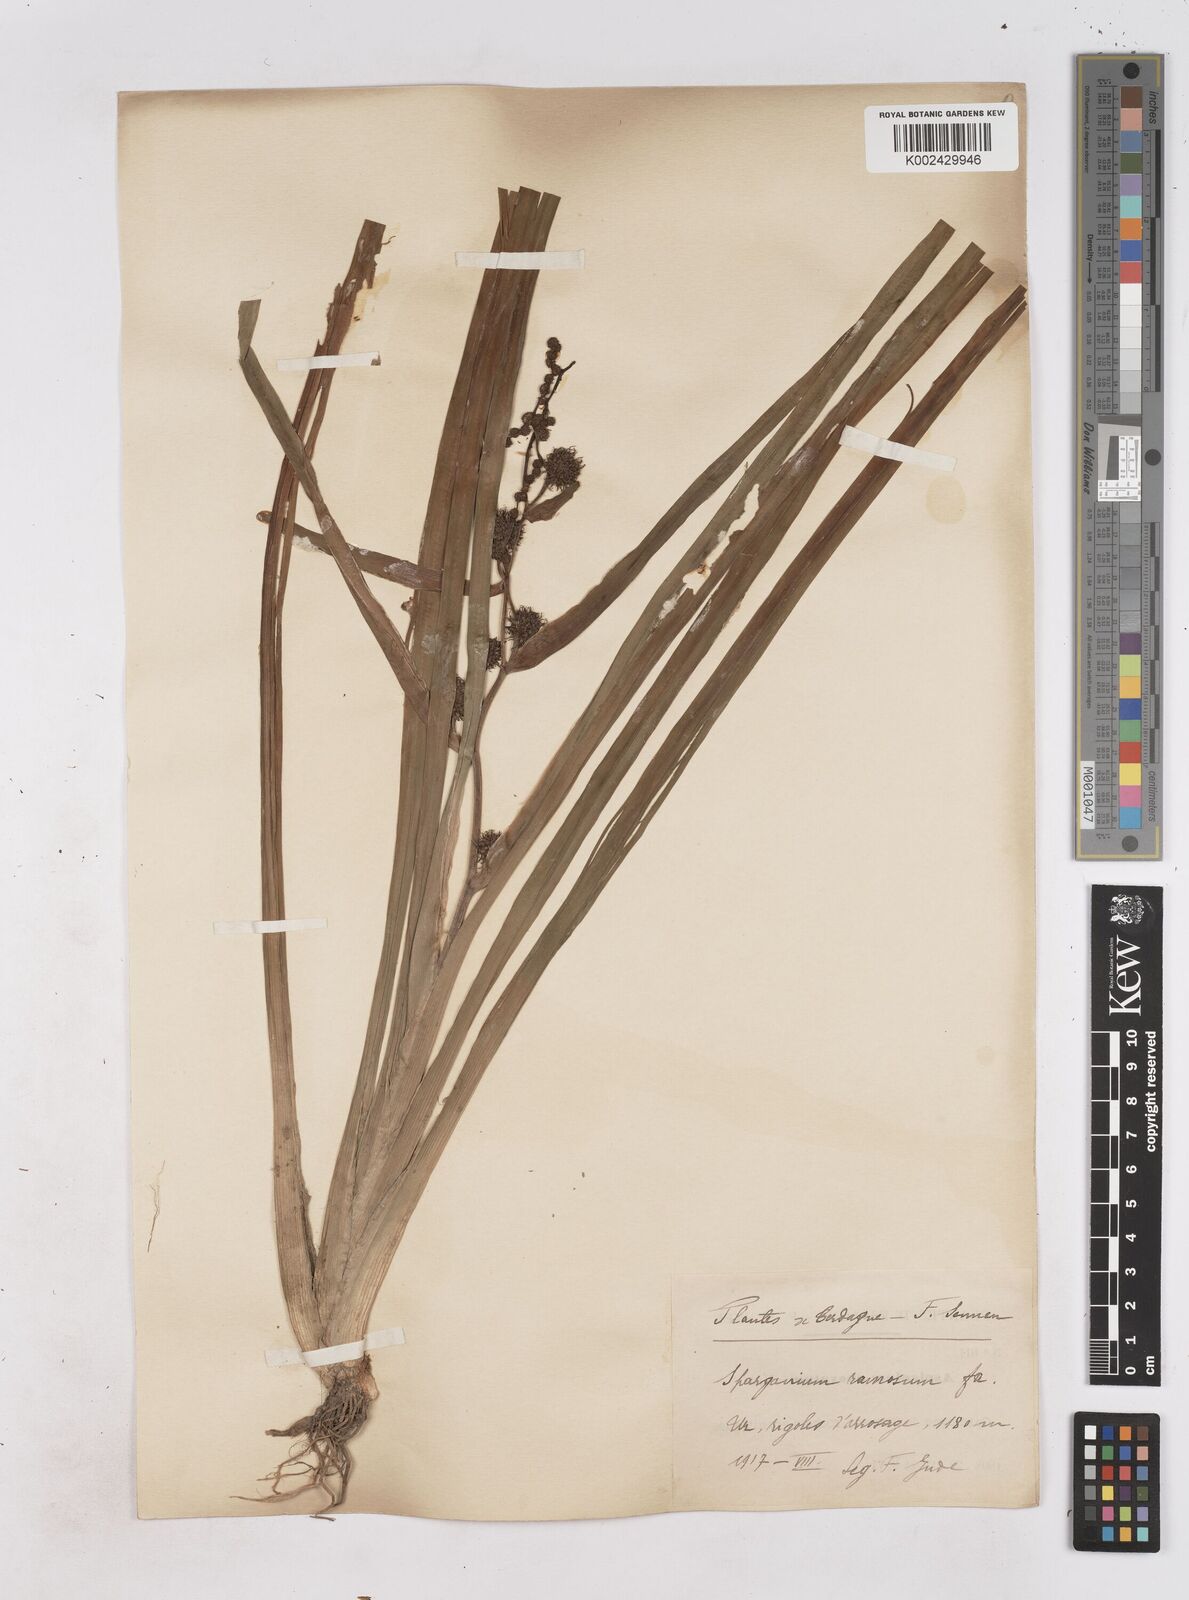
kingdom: Plantae
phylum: Tracheophyta
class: Liliopsida
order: Poales
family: Typhaceae
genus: Sparganium
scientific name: Sparganium erectum
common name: Branched bur-reed
